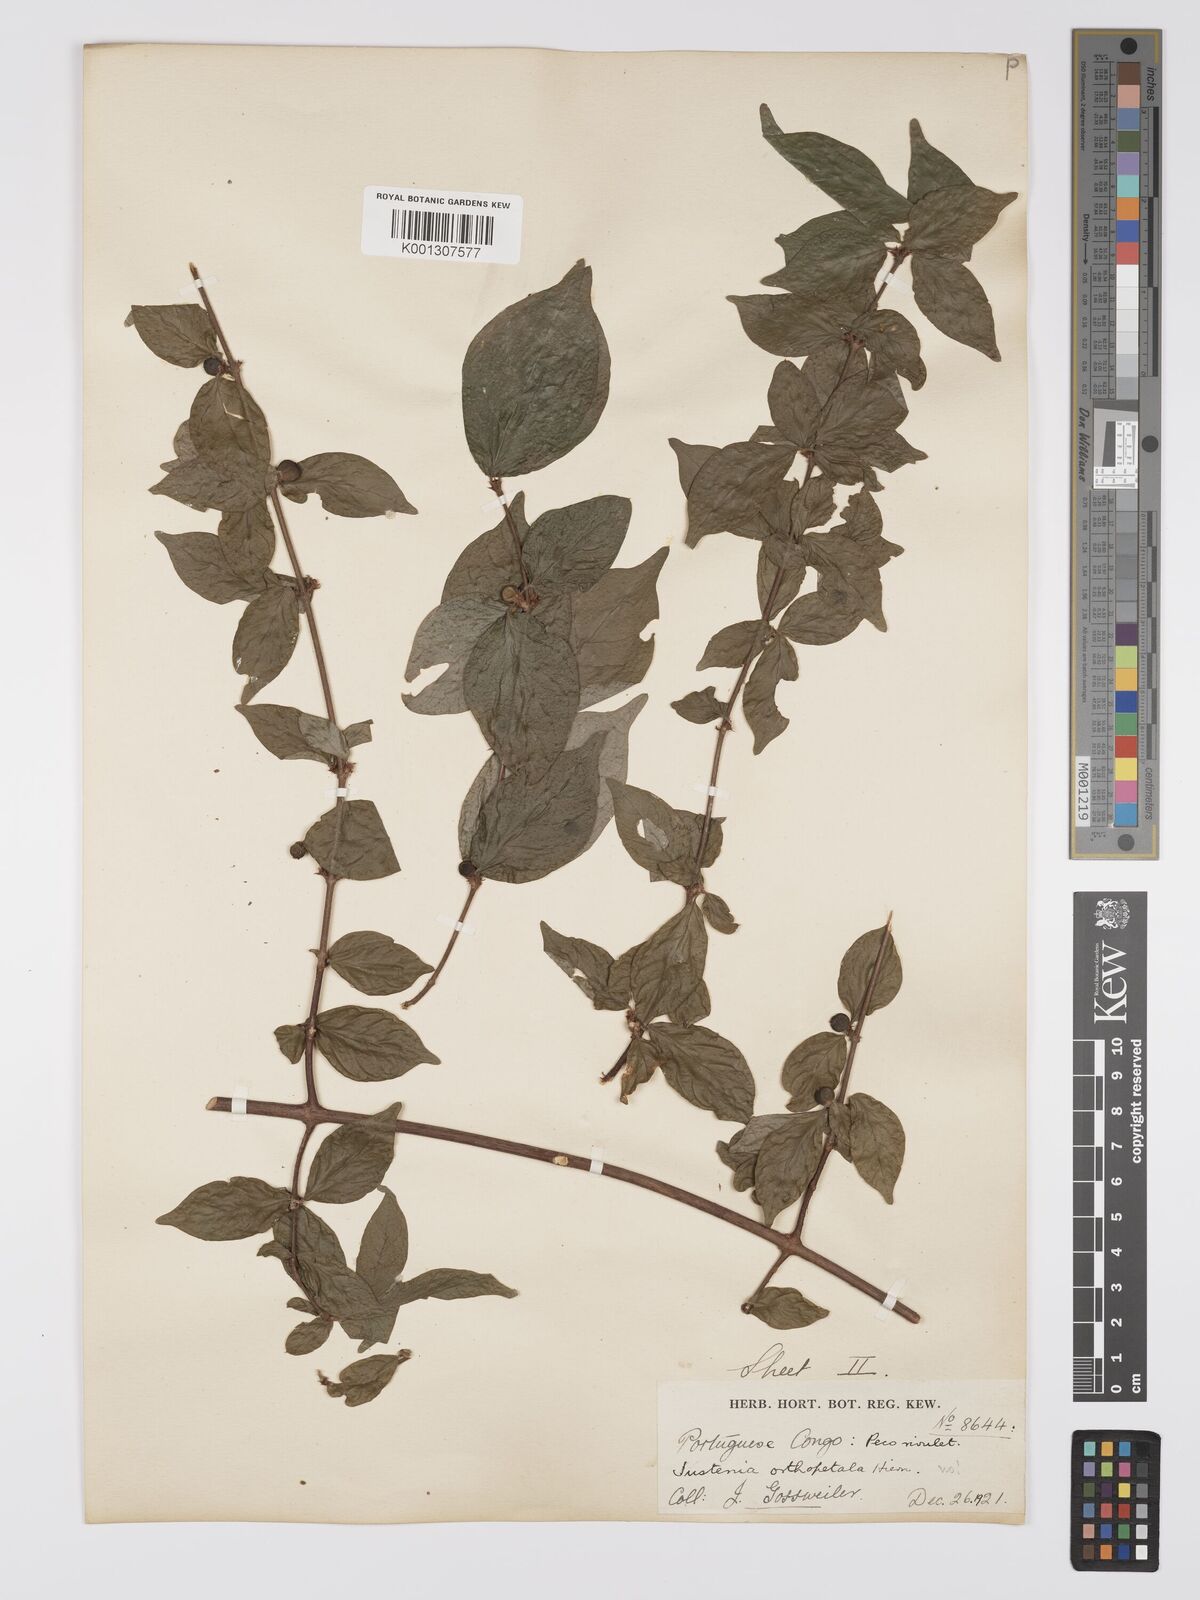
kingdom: Plantae
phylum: Tracheophyta
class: Magnoliopsida
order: Gentianales
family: Rubiaceae
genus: Argocoffeopsis
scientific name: Argocoffeopsis eketensis
